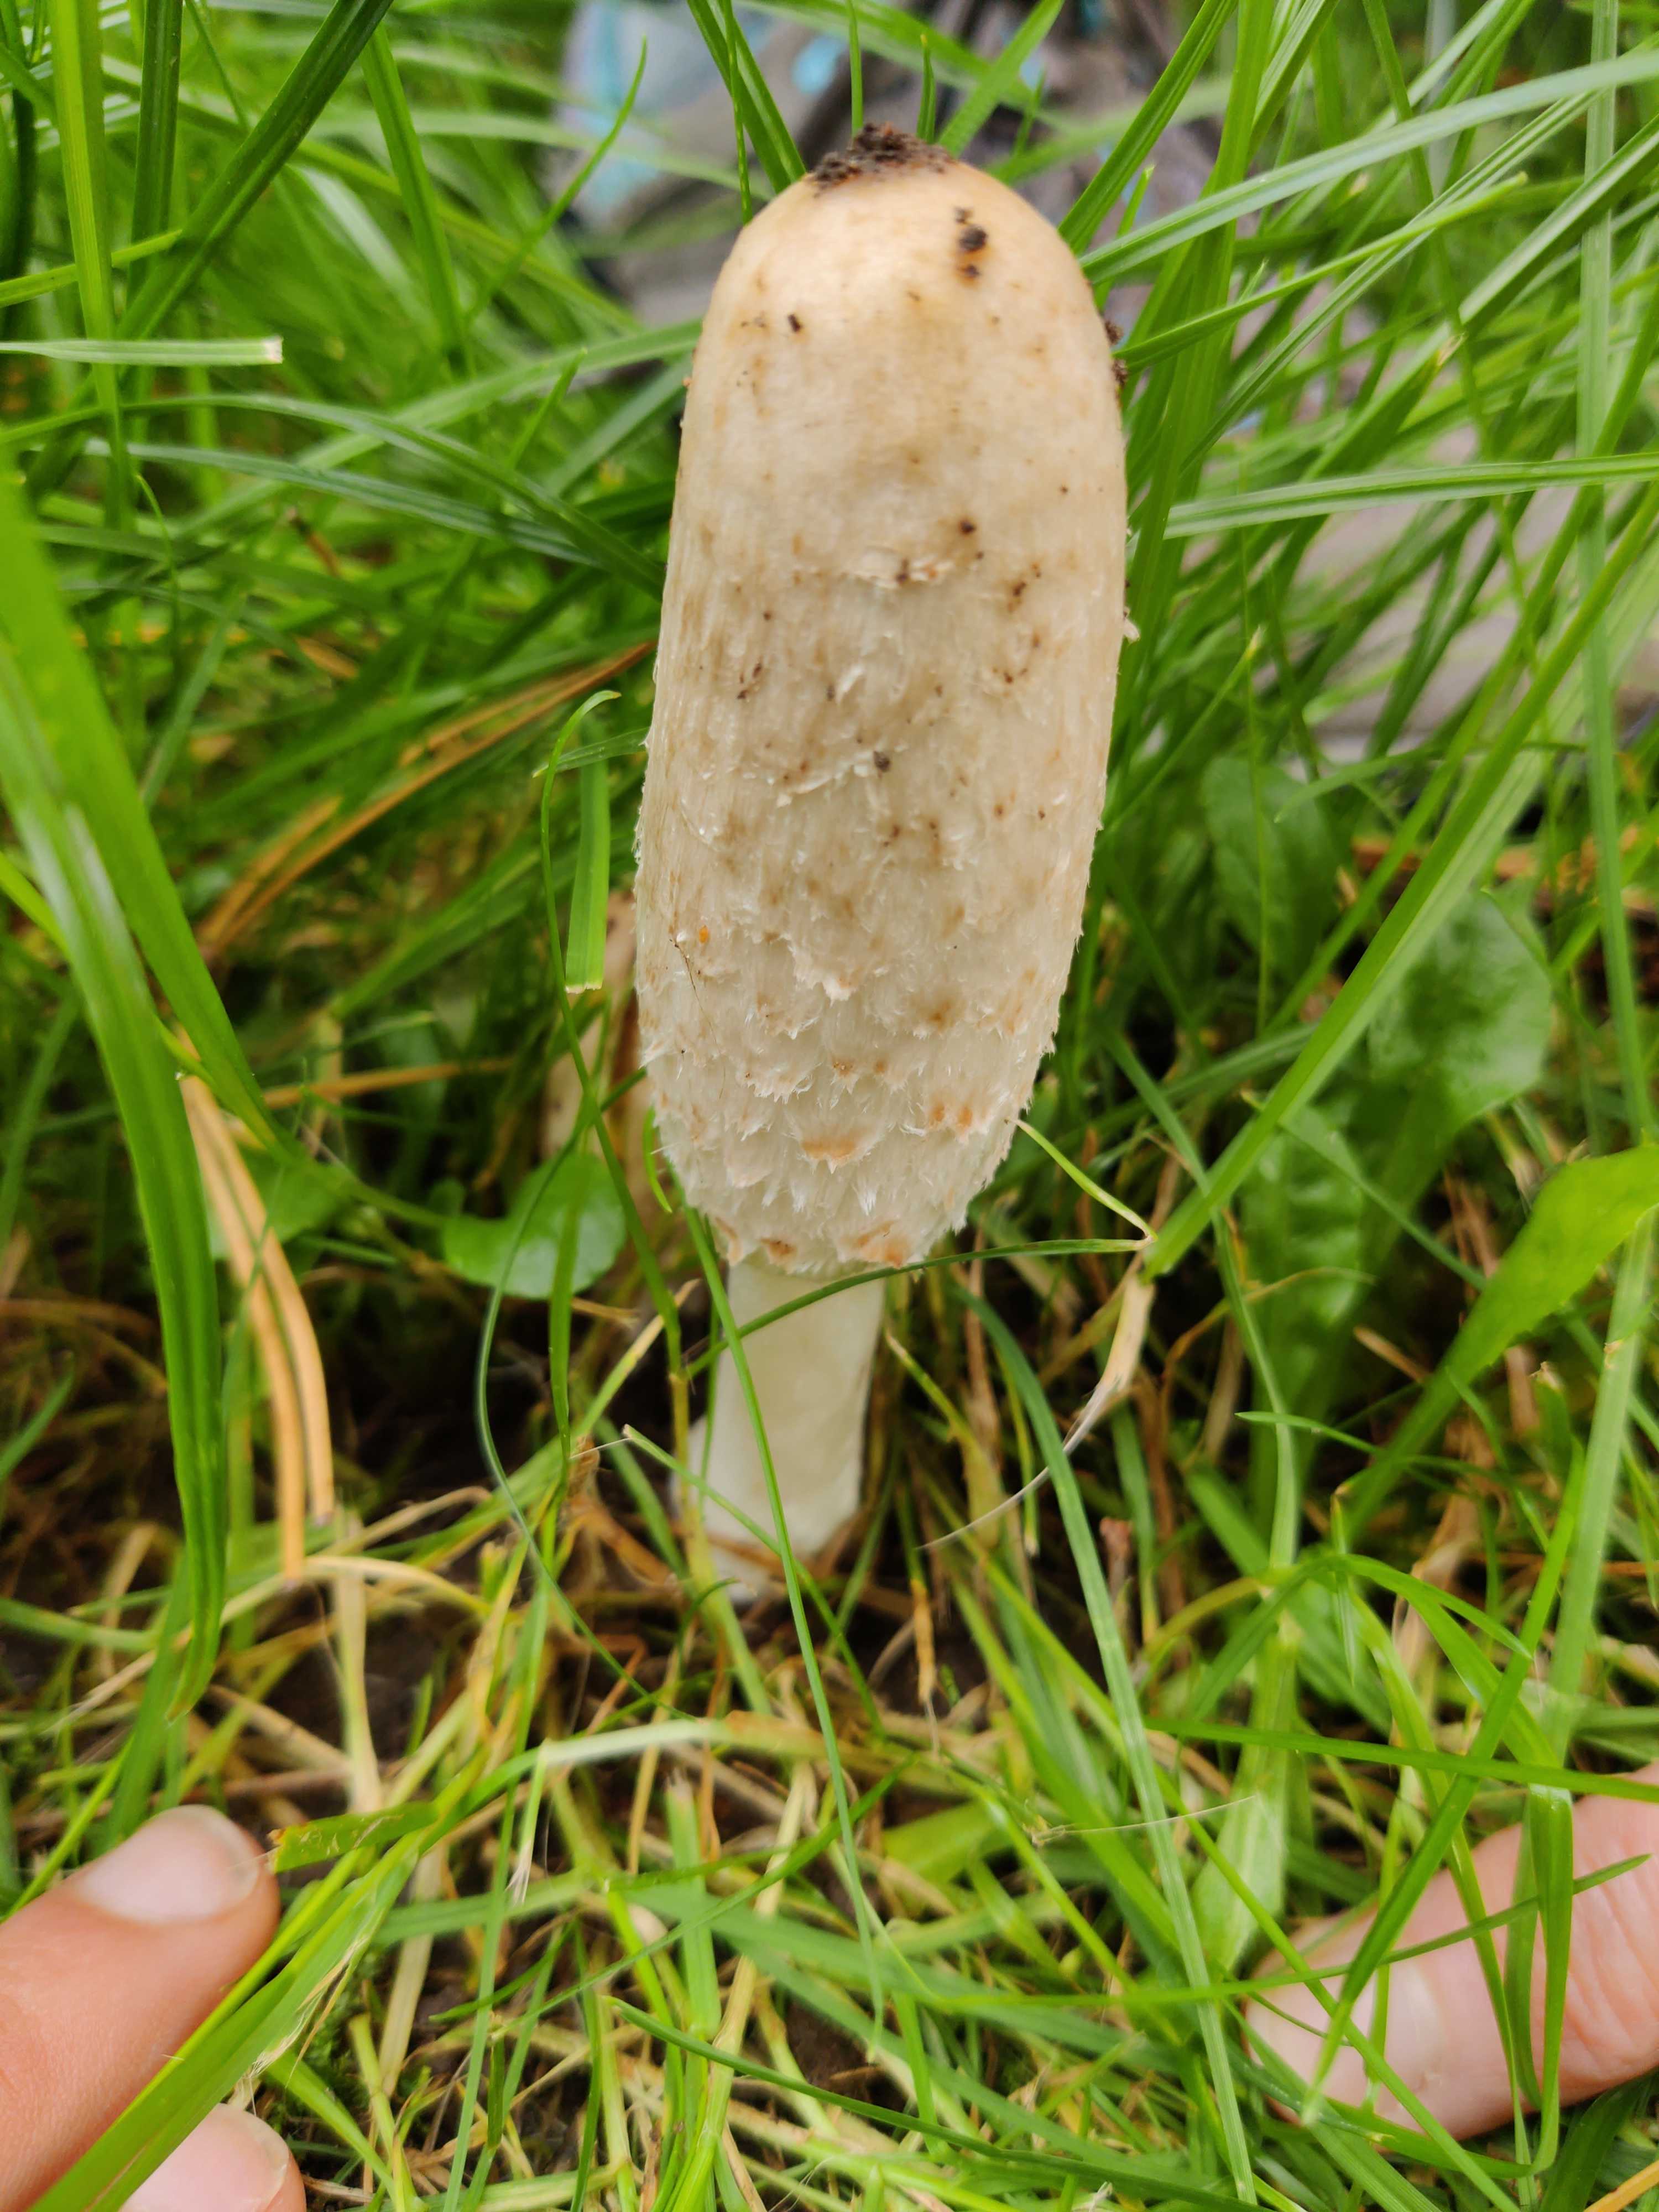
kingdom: Fungi
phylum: Basidiomycota
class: Agaricomycetes
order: Agaricales
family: Agaricaceae
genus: Coprinus
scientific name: Coprinus comatus
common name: stor parykhat
